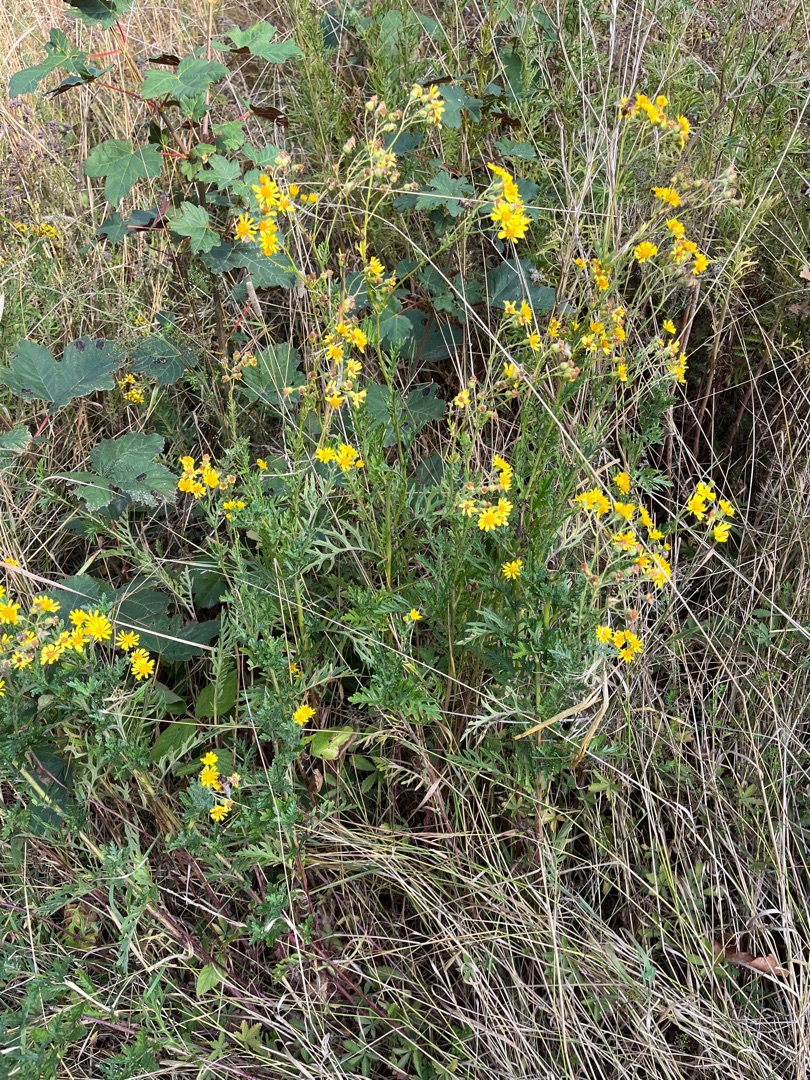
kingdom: Plantae
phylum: Tracheophyta
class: Magnoliopsida
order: Asterales
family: Asteraceae
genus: Jacobaea
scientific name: Jacobaea erucifolia
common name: Smalfliget brandbæger
